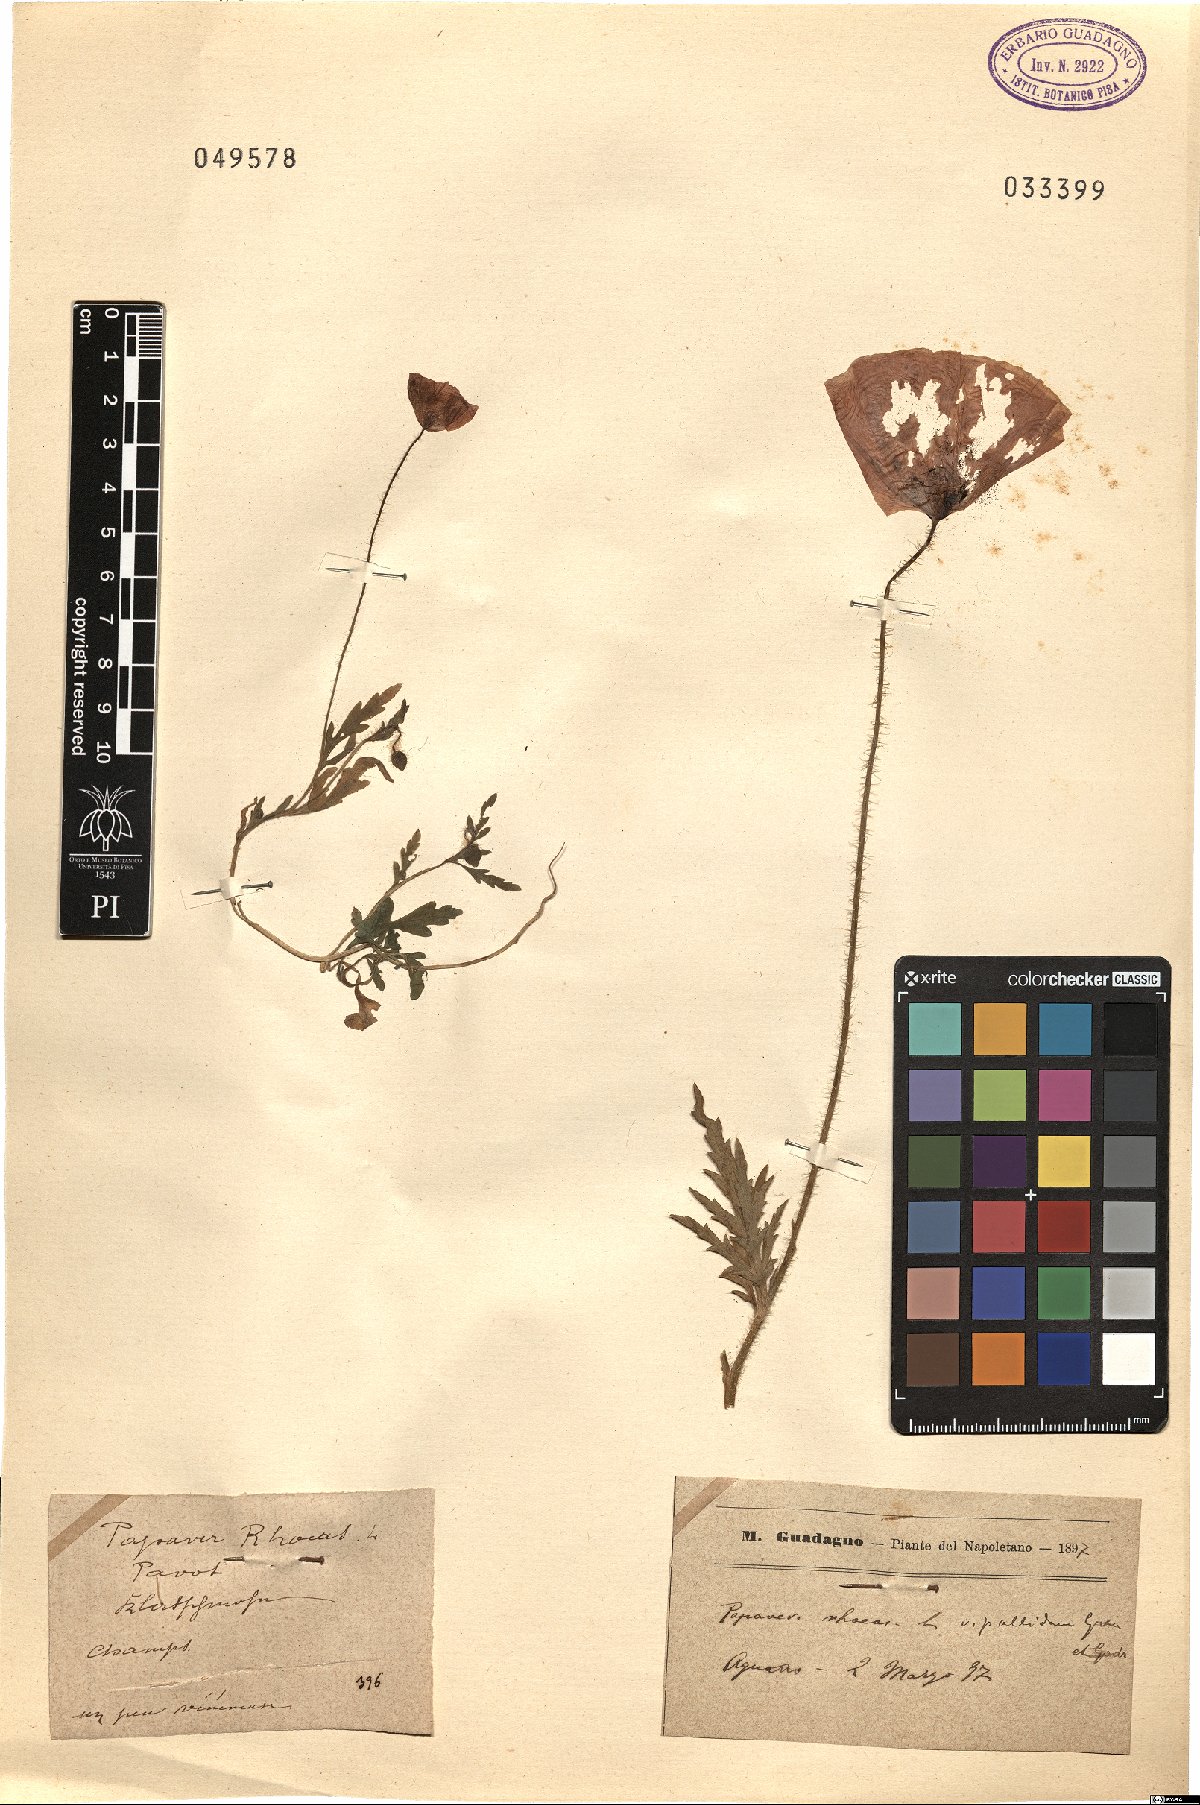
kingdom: Plantae
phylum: Tracheophyta
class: Magnoliopsida
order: Ranunculales
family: Papaveraceae
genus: Papaver
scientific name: Papaver rhoeas
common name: Corn poppy
